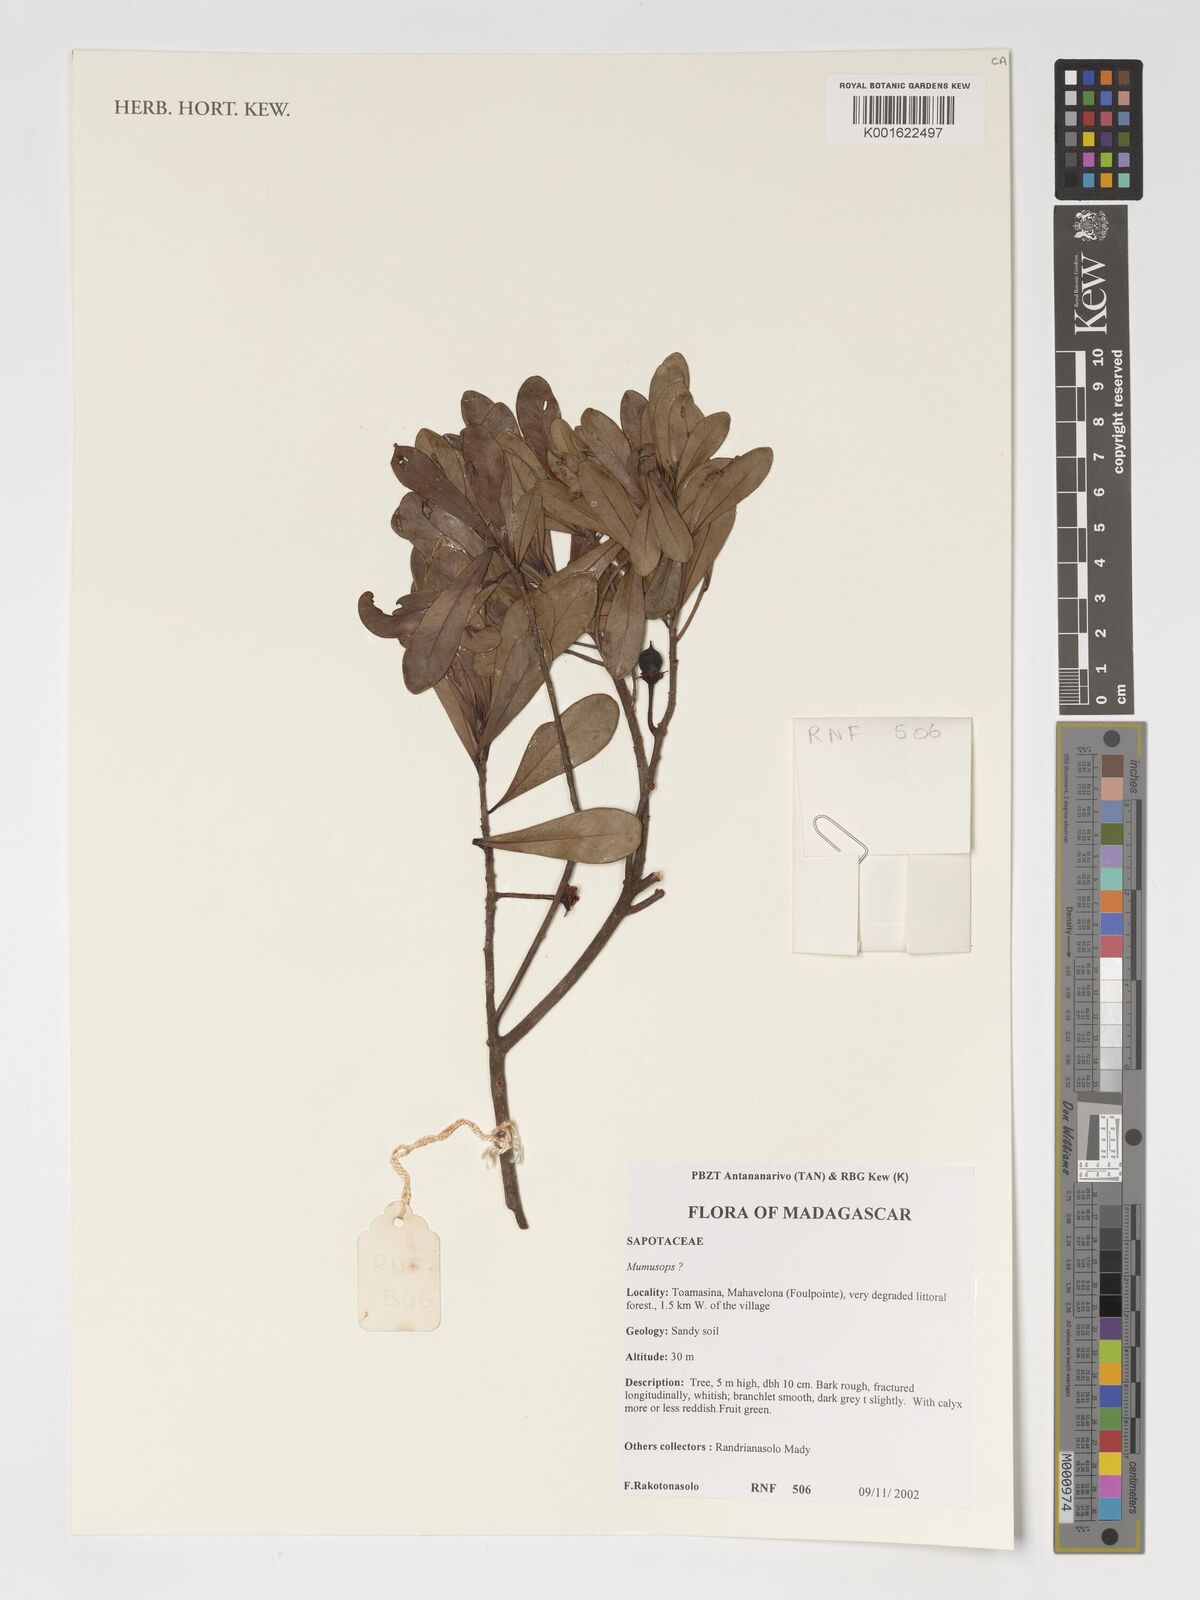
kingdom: Plantae
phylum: Tracheophyta
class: Magnoliopsida
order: Ericales
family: Sapotaceae
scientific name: Sapotaceae
